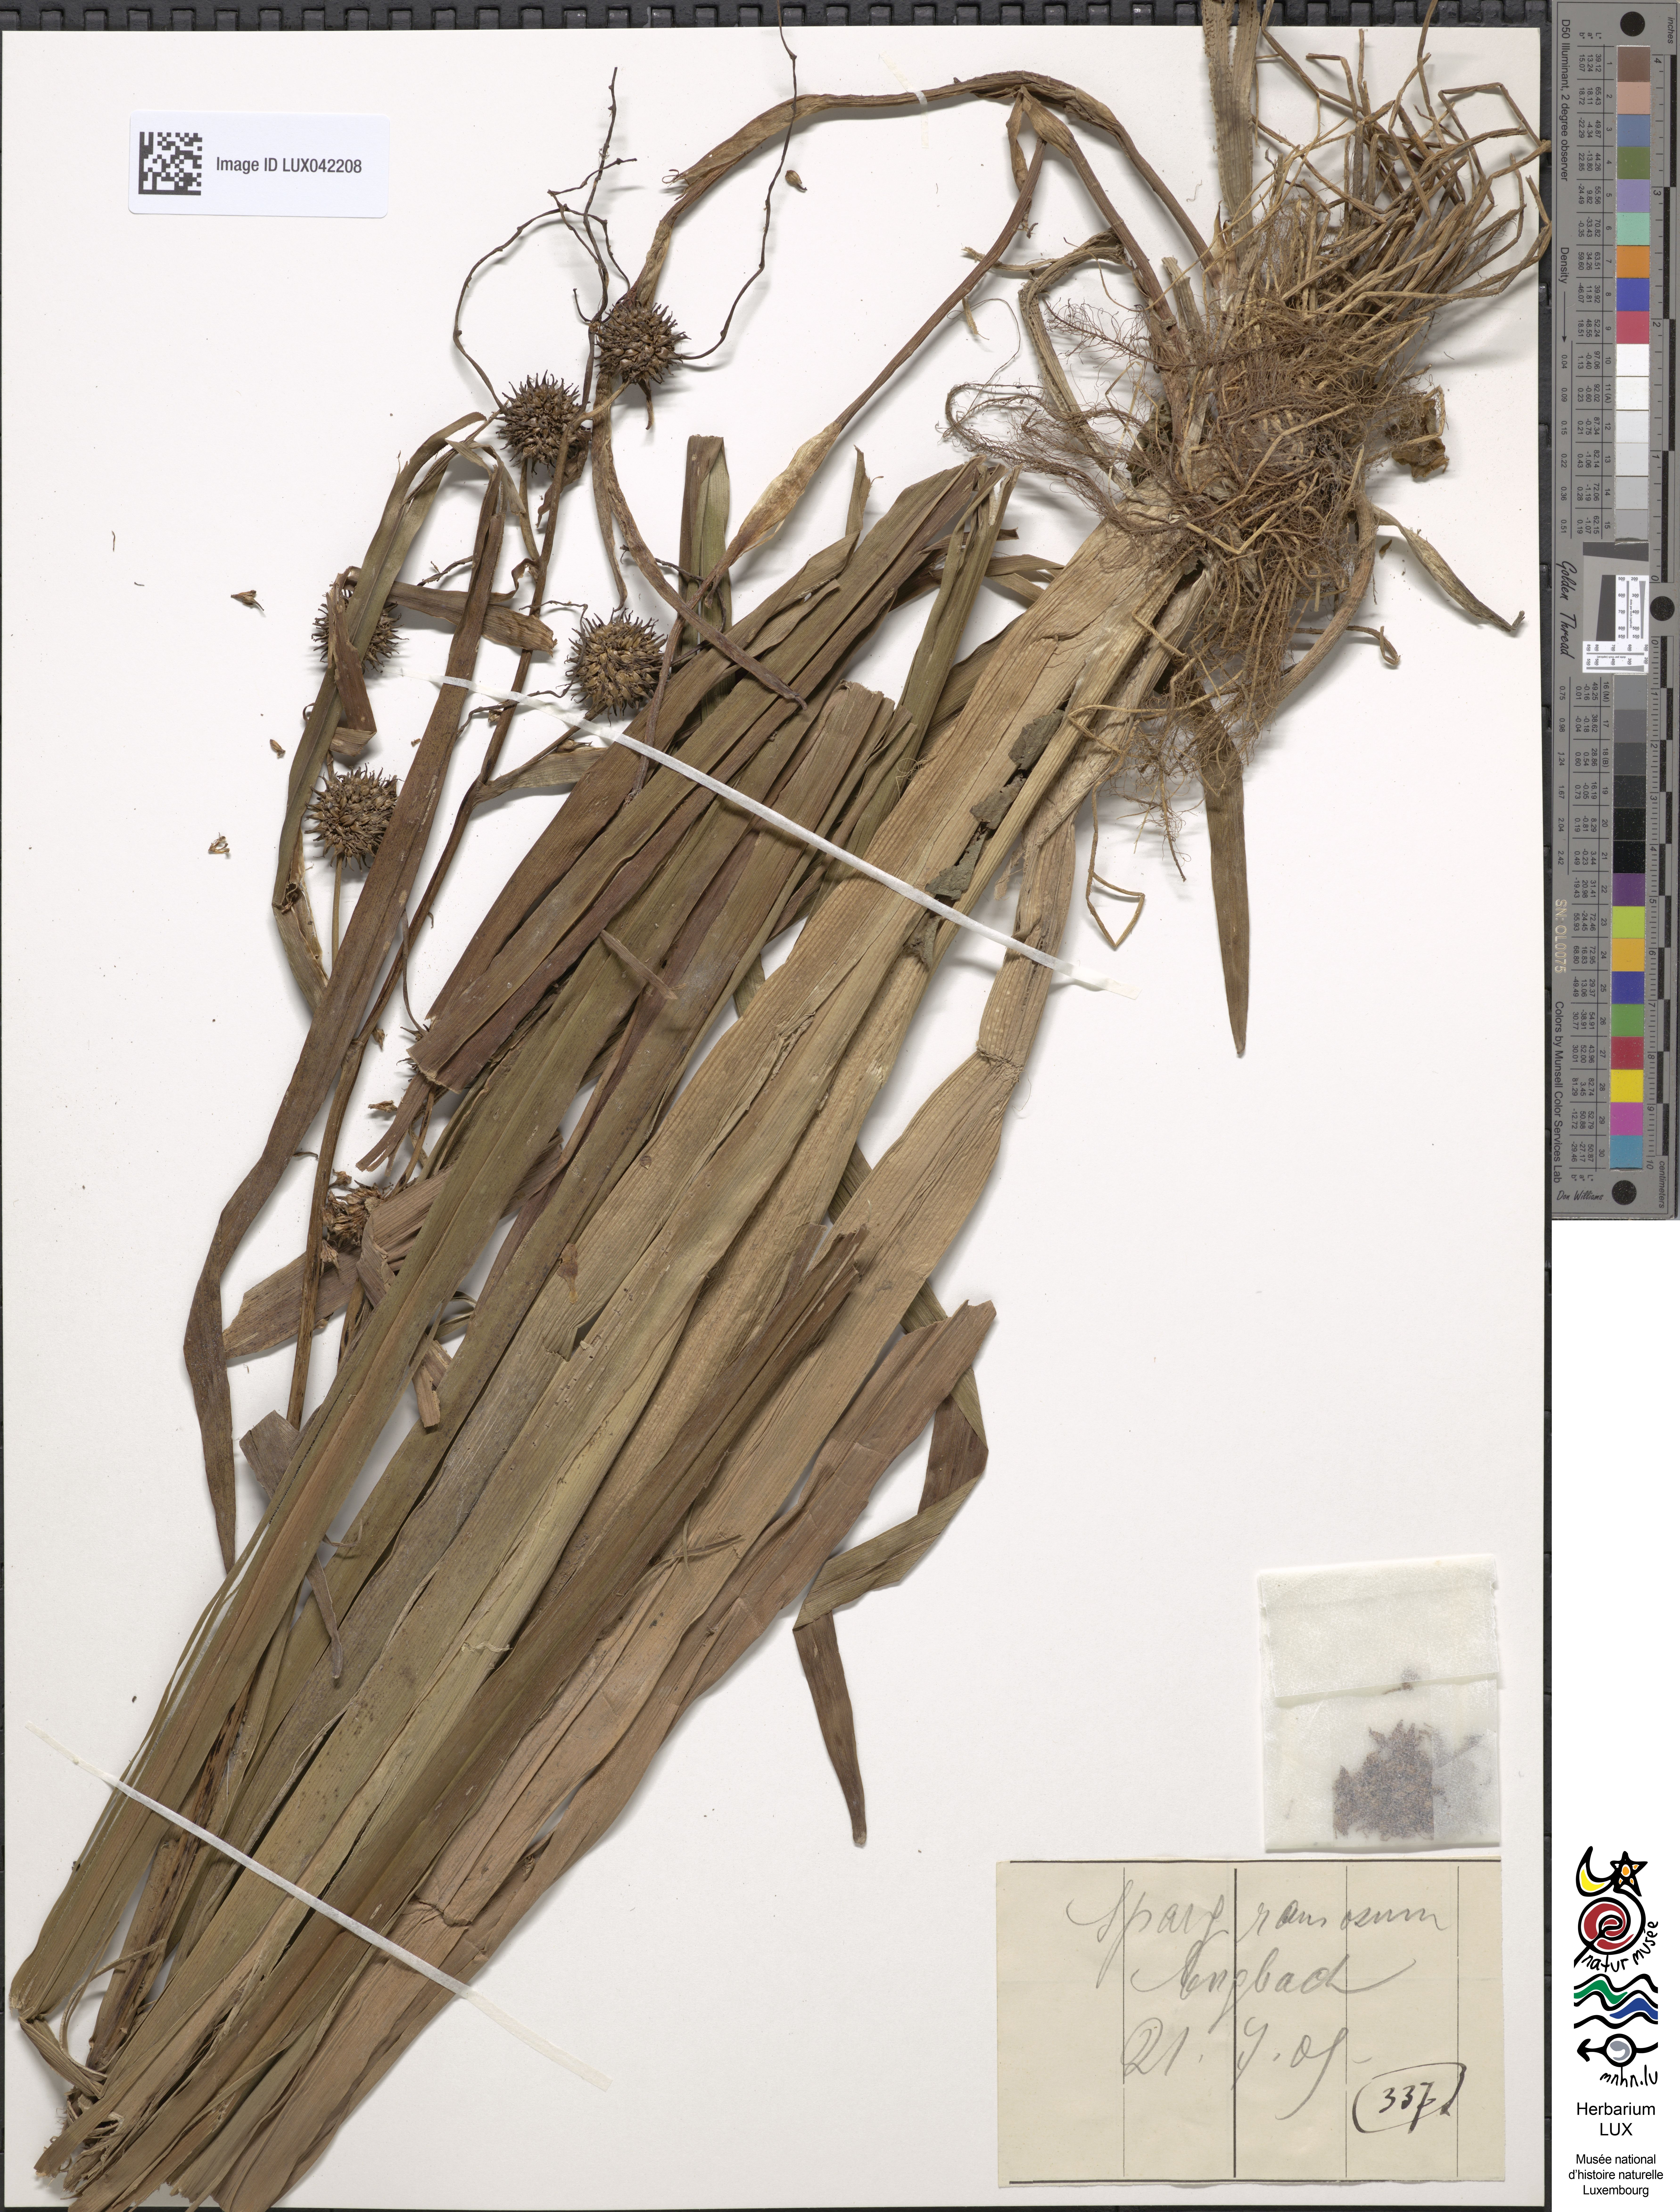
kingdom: Plantae
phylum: Tracheophyta
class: Liliopsida
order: Poales
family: Typhaceae
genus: Sparganium
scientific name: Sparganium erectum
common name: Branched bur-reed
